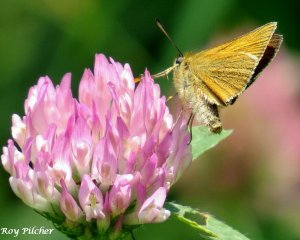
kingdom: Animalia
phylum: Arthropoda
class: Insecta
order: Lepidoptera
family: Hesperiidae
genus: Thymelicus
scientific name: Thymelicus lineola
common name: European Skipper
